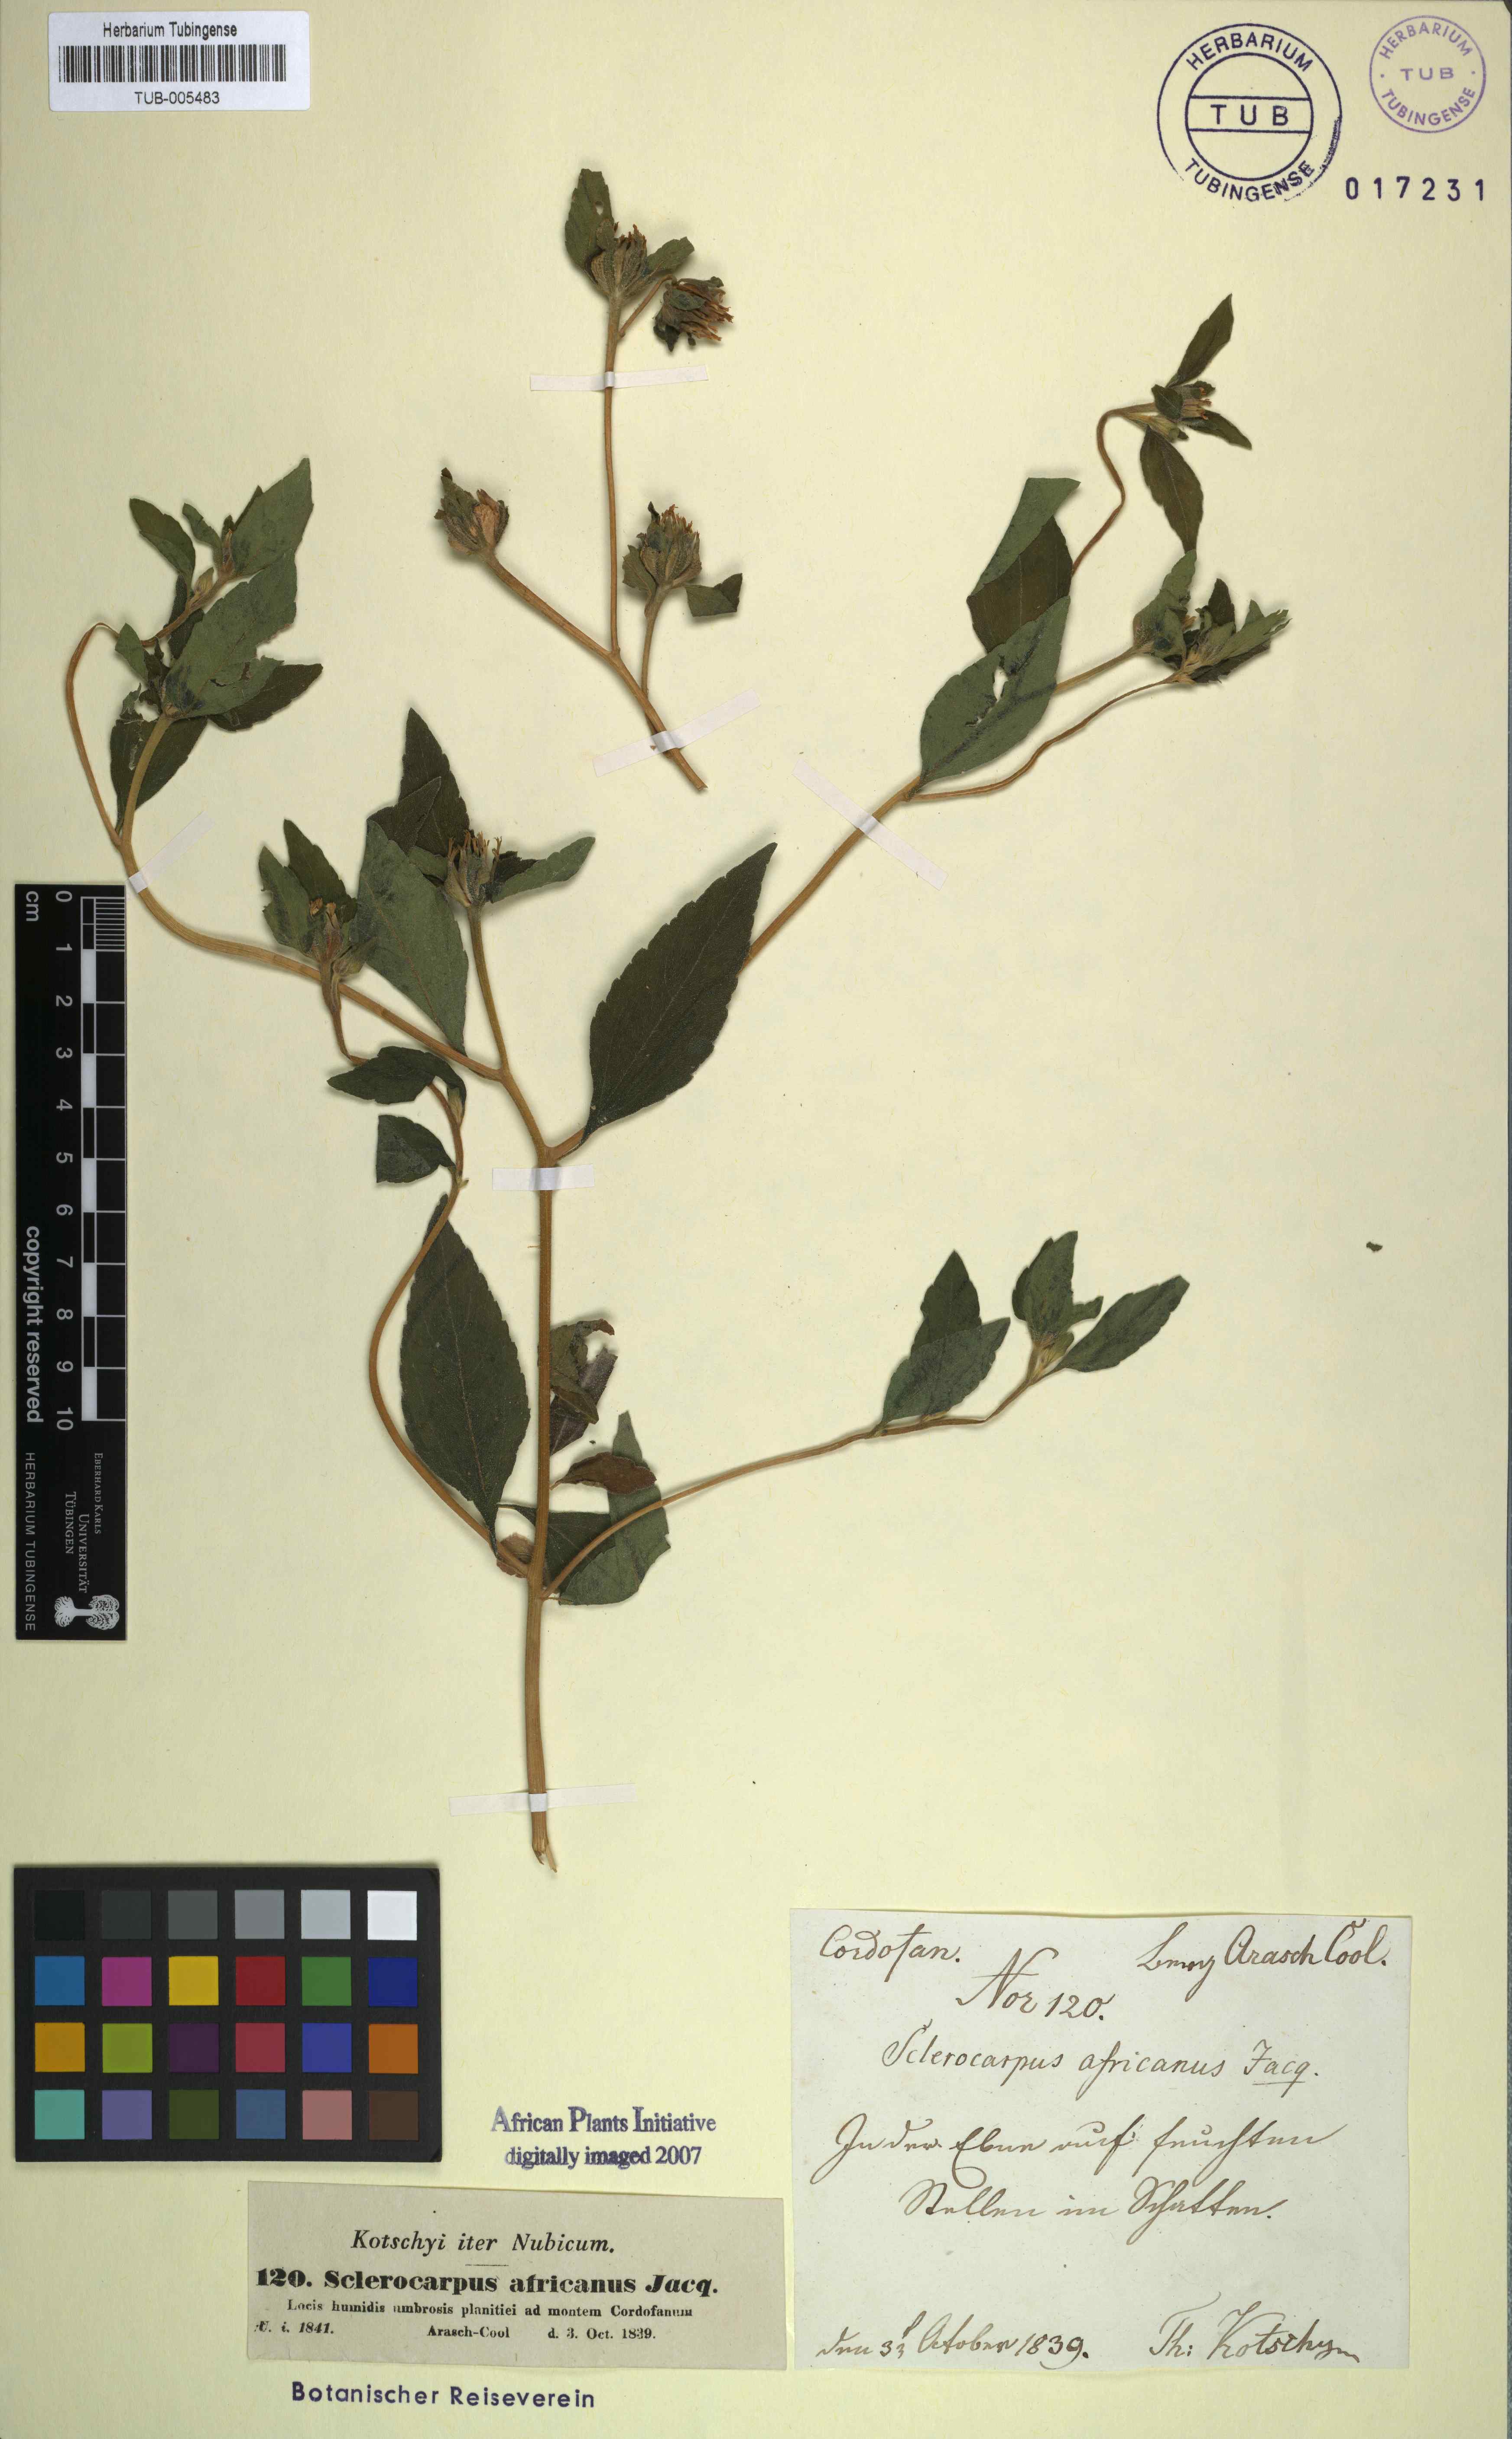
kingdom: Plantae
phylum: Tracheophyta
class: Magnoliopsida
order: Asterales
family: Asteraceae
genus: Sclerocarpus
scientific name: Sclerocarpus africanus
